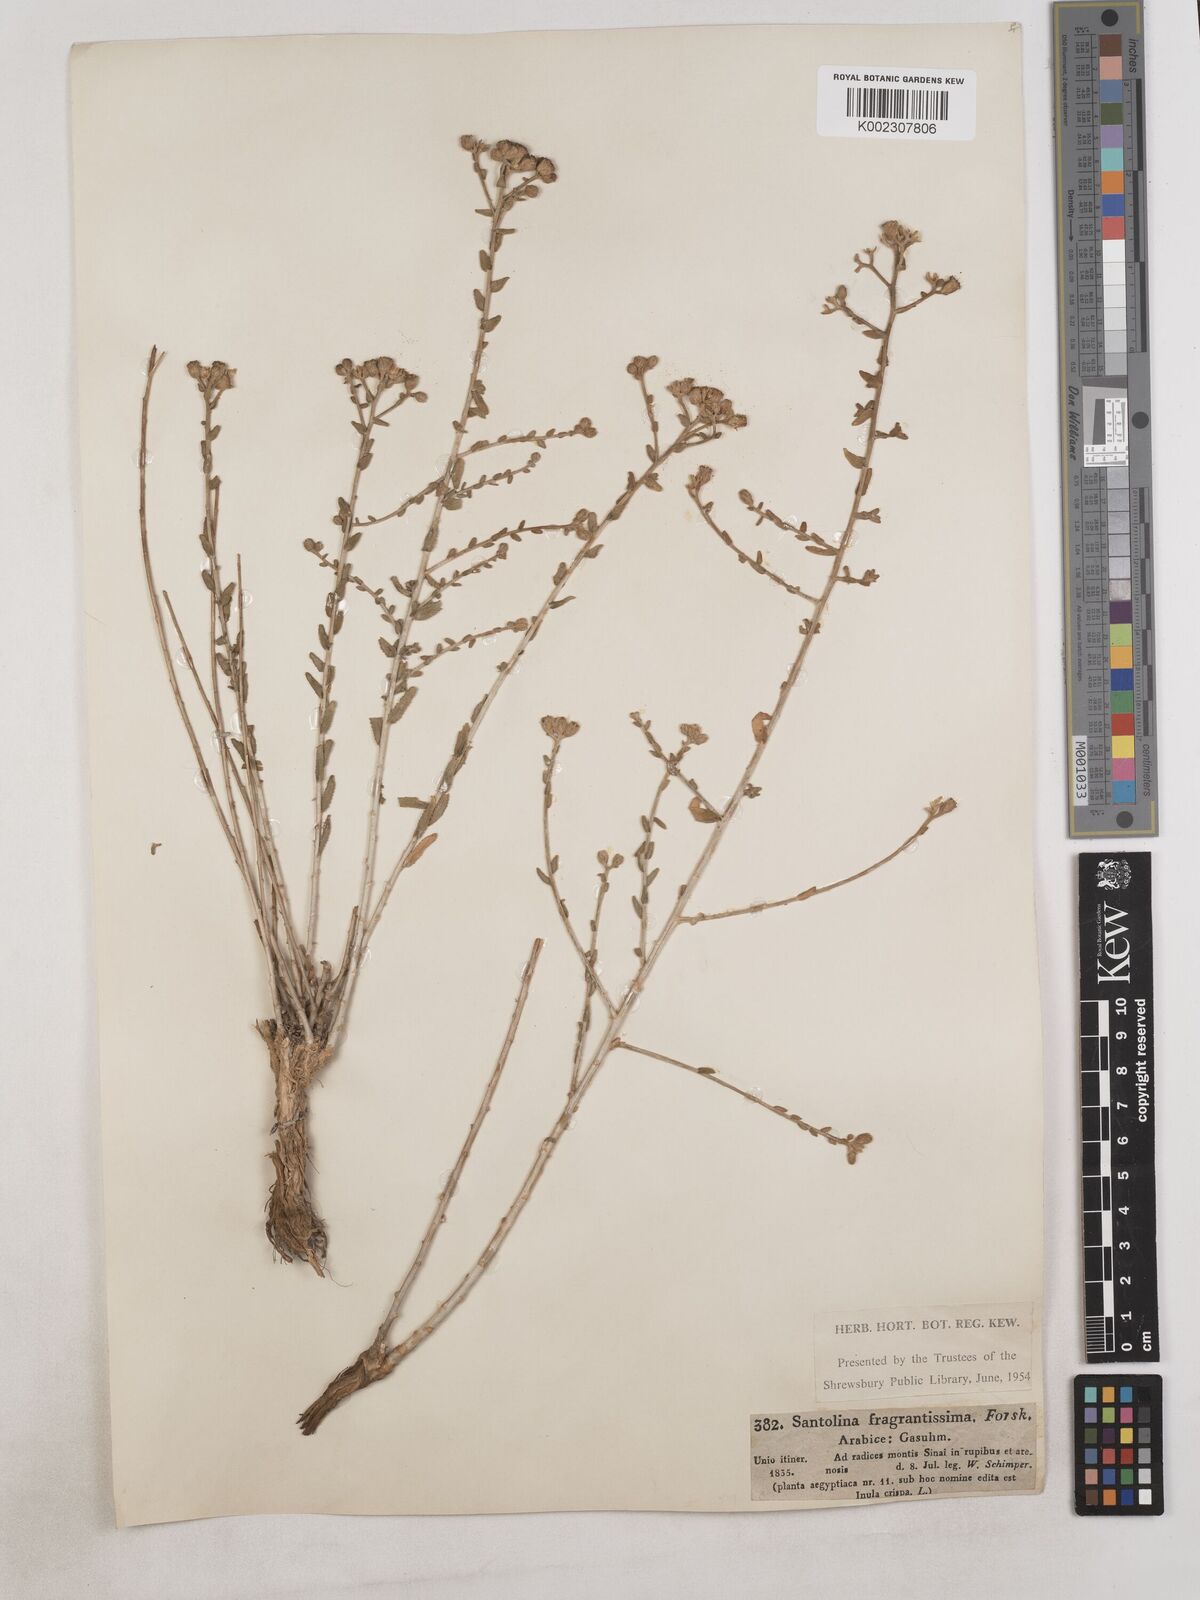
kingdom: Plantae
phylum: Tracheophyta
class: Magnoliopsida
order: Asterales
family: Asteraceae
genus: Achillea
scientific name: Achillea fragrantissima
